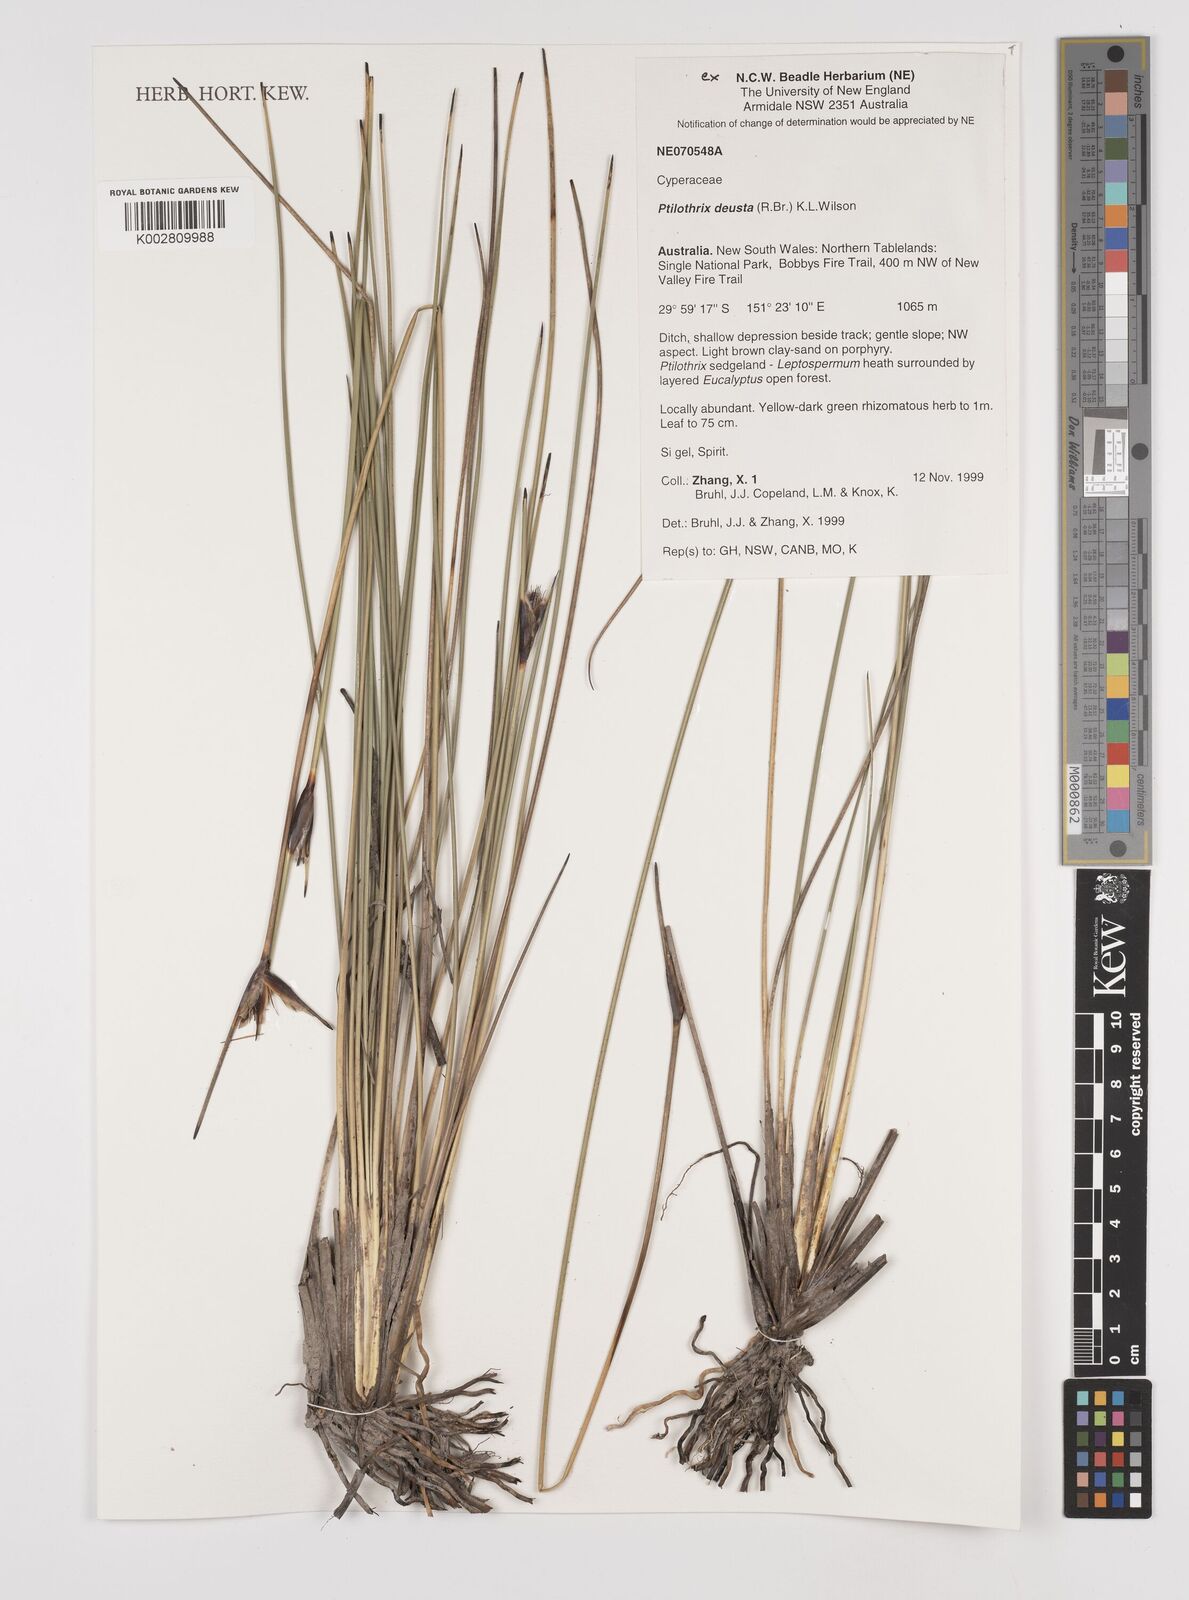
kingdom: Plantae
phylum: Tracheophyta
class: Liliopsida
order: Poales
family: Cyperaceae
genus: Ptilothrix
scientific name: Ptilothrix deusta
